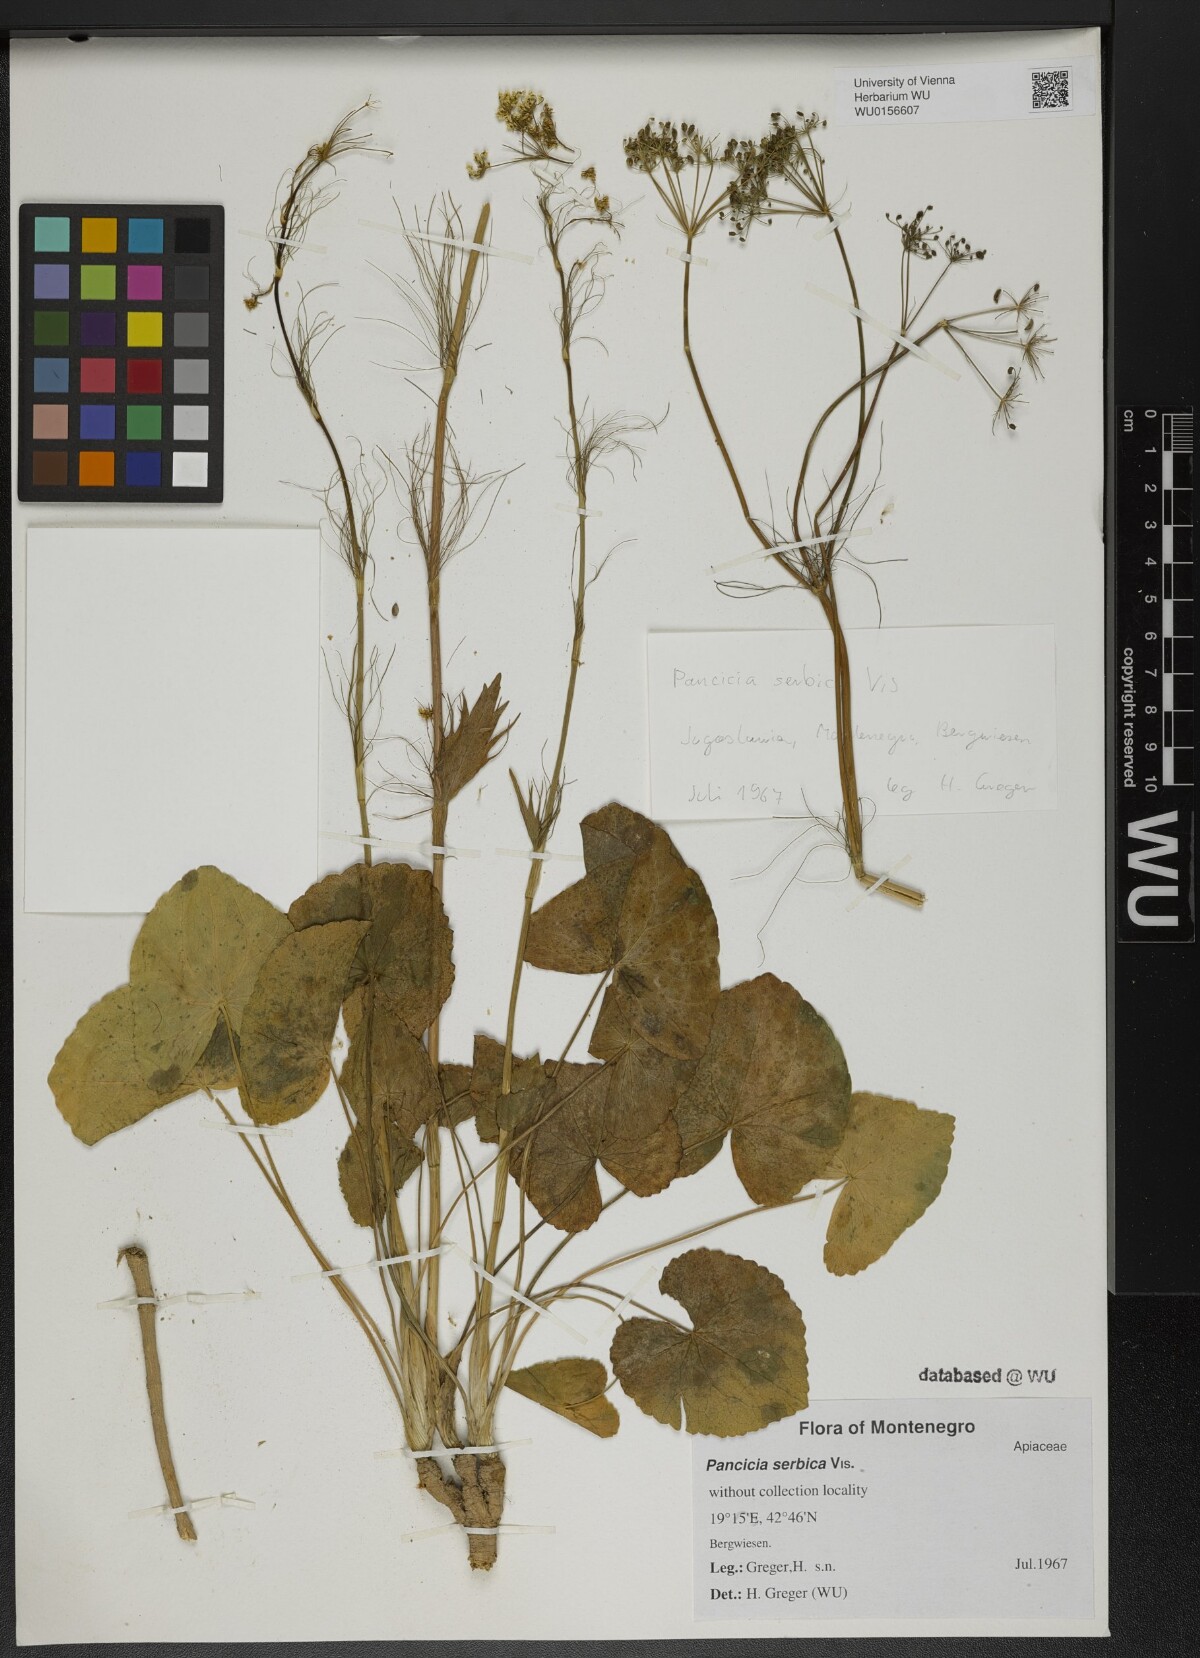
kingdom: Plantae
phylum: Tracheophyta
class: Magnoliopsida
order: Apiales
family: Apiaceae
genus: Pimpinella
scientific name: Pimpinella serbica
